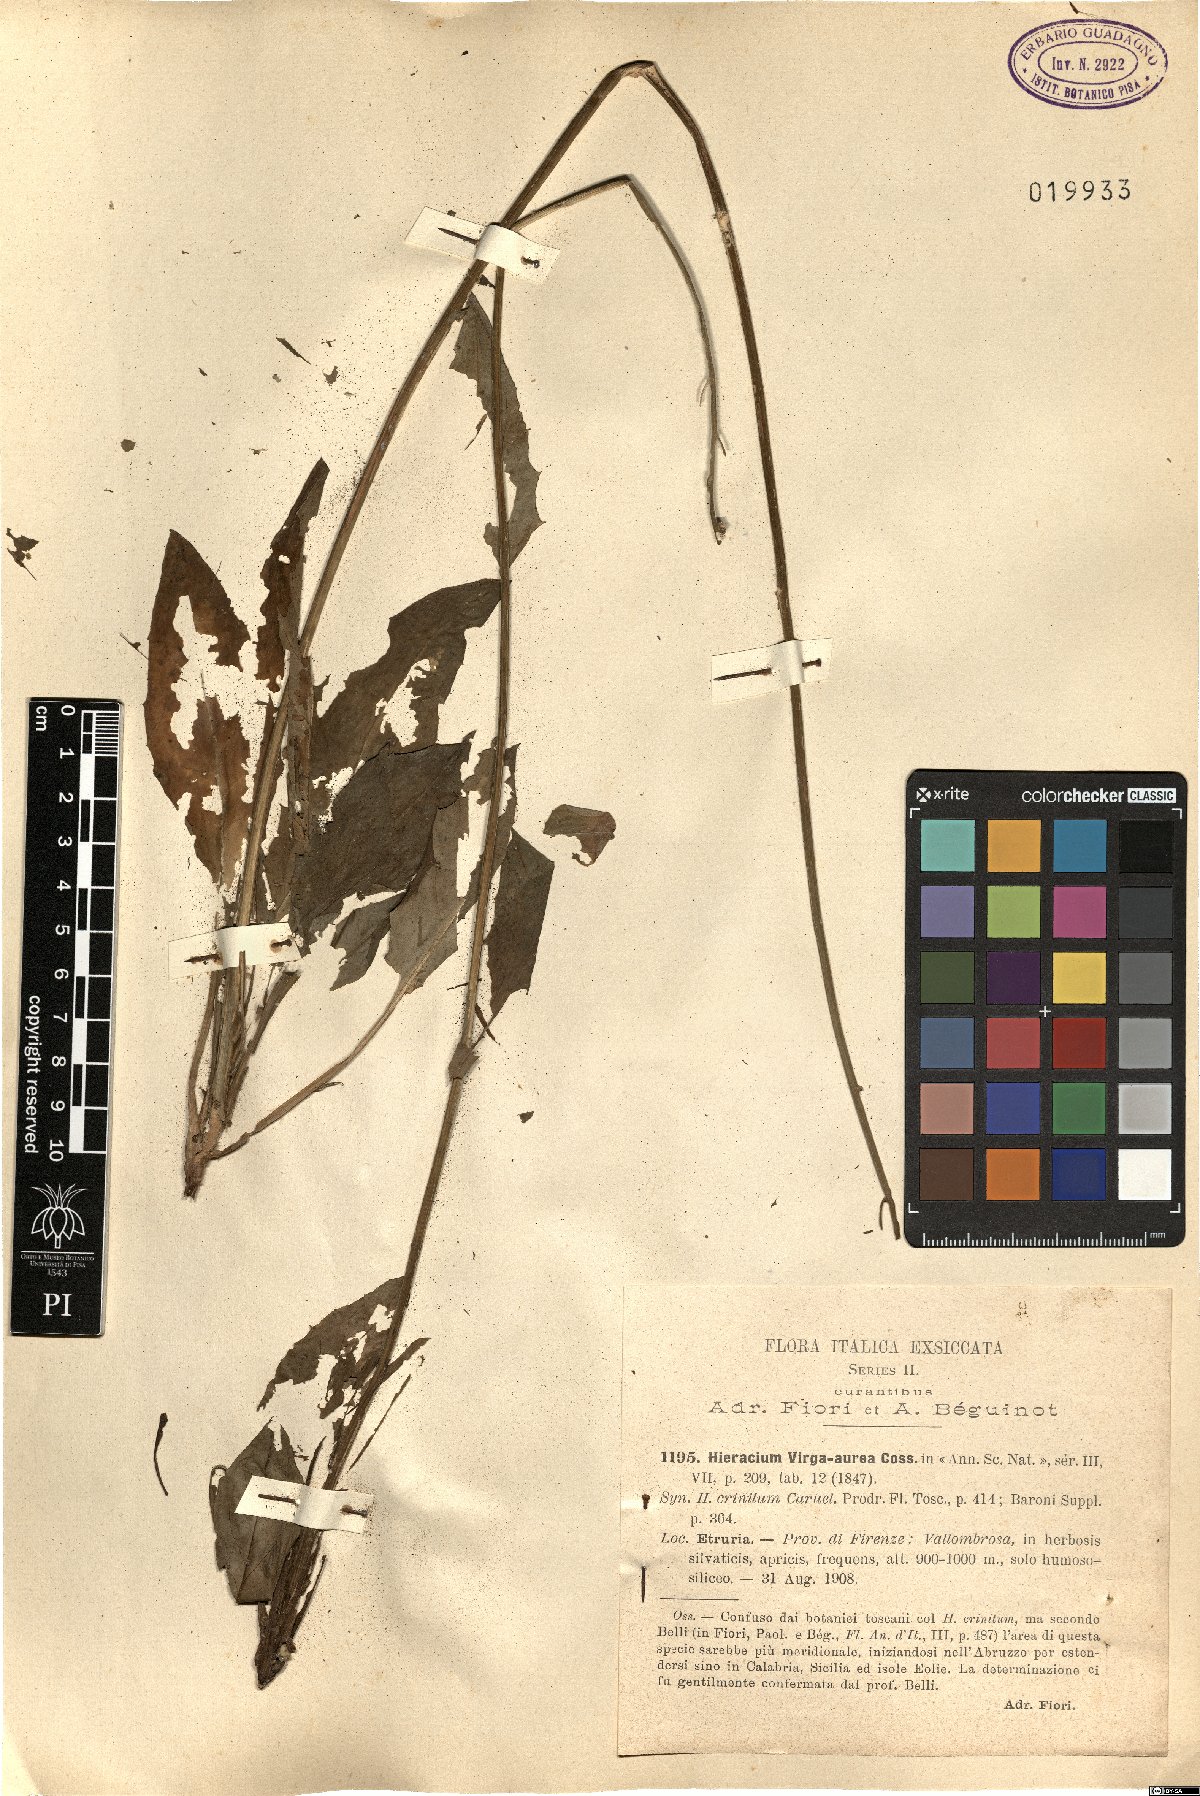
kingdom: Plantae
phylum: Tracheophyta
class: Magnoliopsida
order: Asterales
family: Asteraceae
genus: Hieracium
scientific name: Hieracium racemosum
